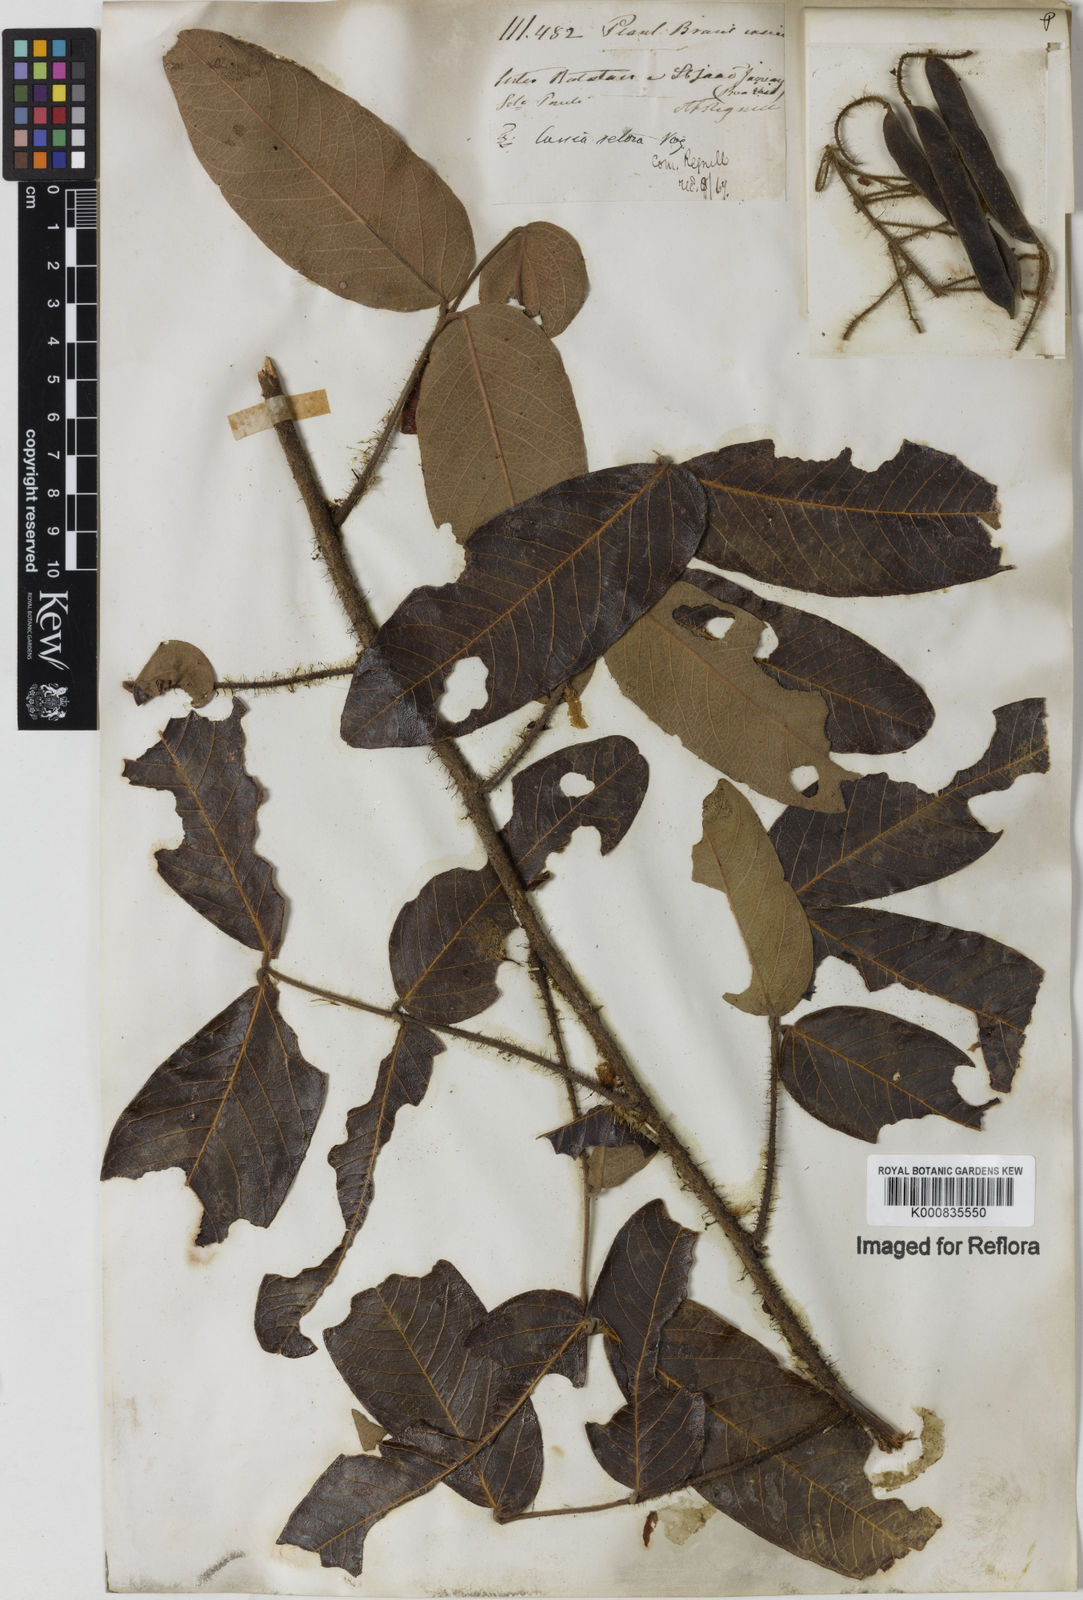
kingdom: Plantae
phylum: Tracheophyta
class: Magnoliopsida
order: Fabales
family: Fabaceae
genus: Chamaecrista
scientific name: Chamaecrista setosa
